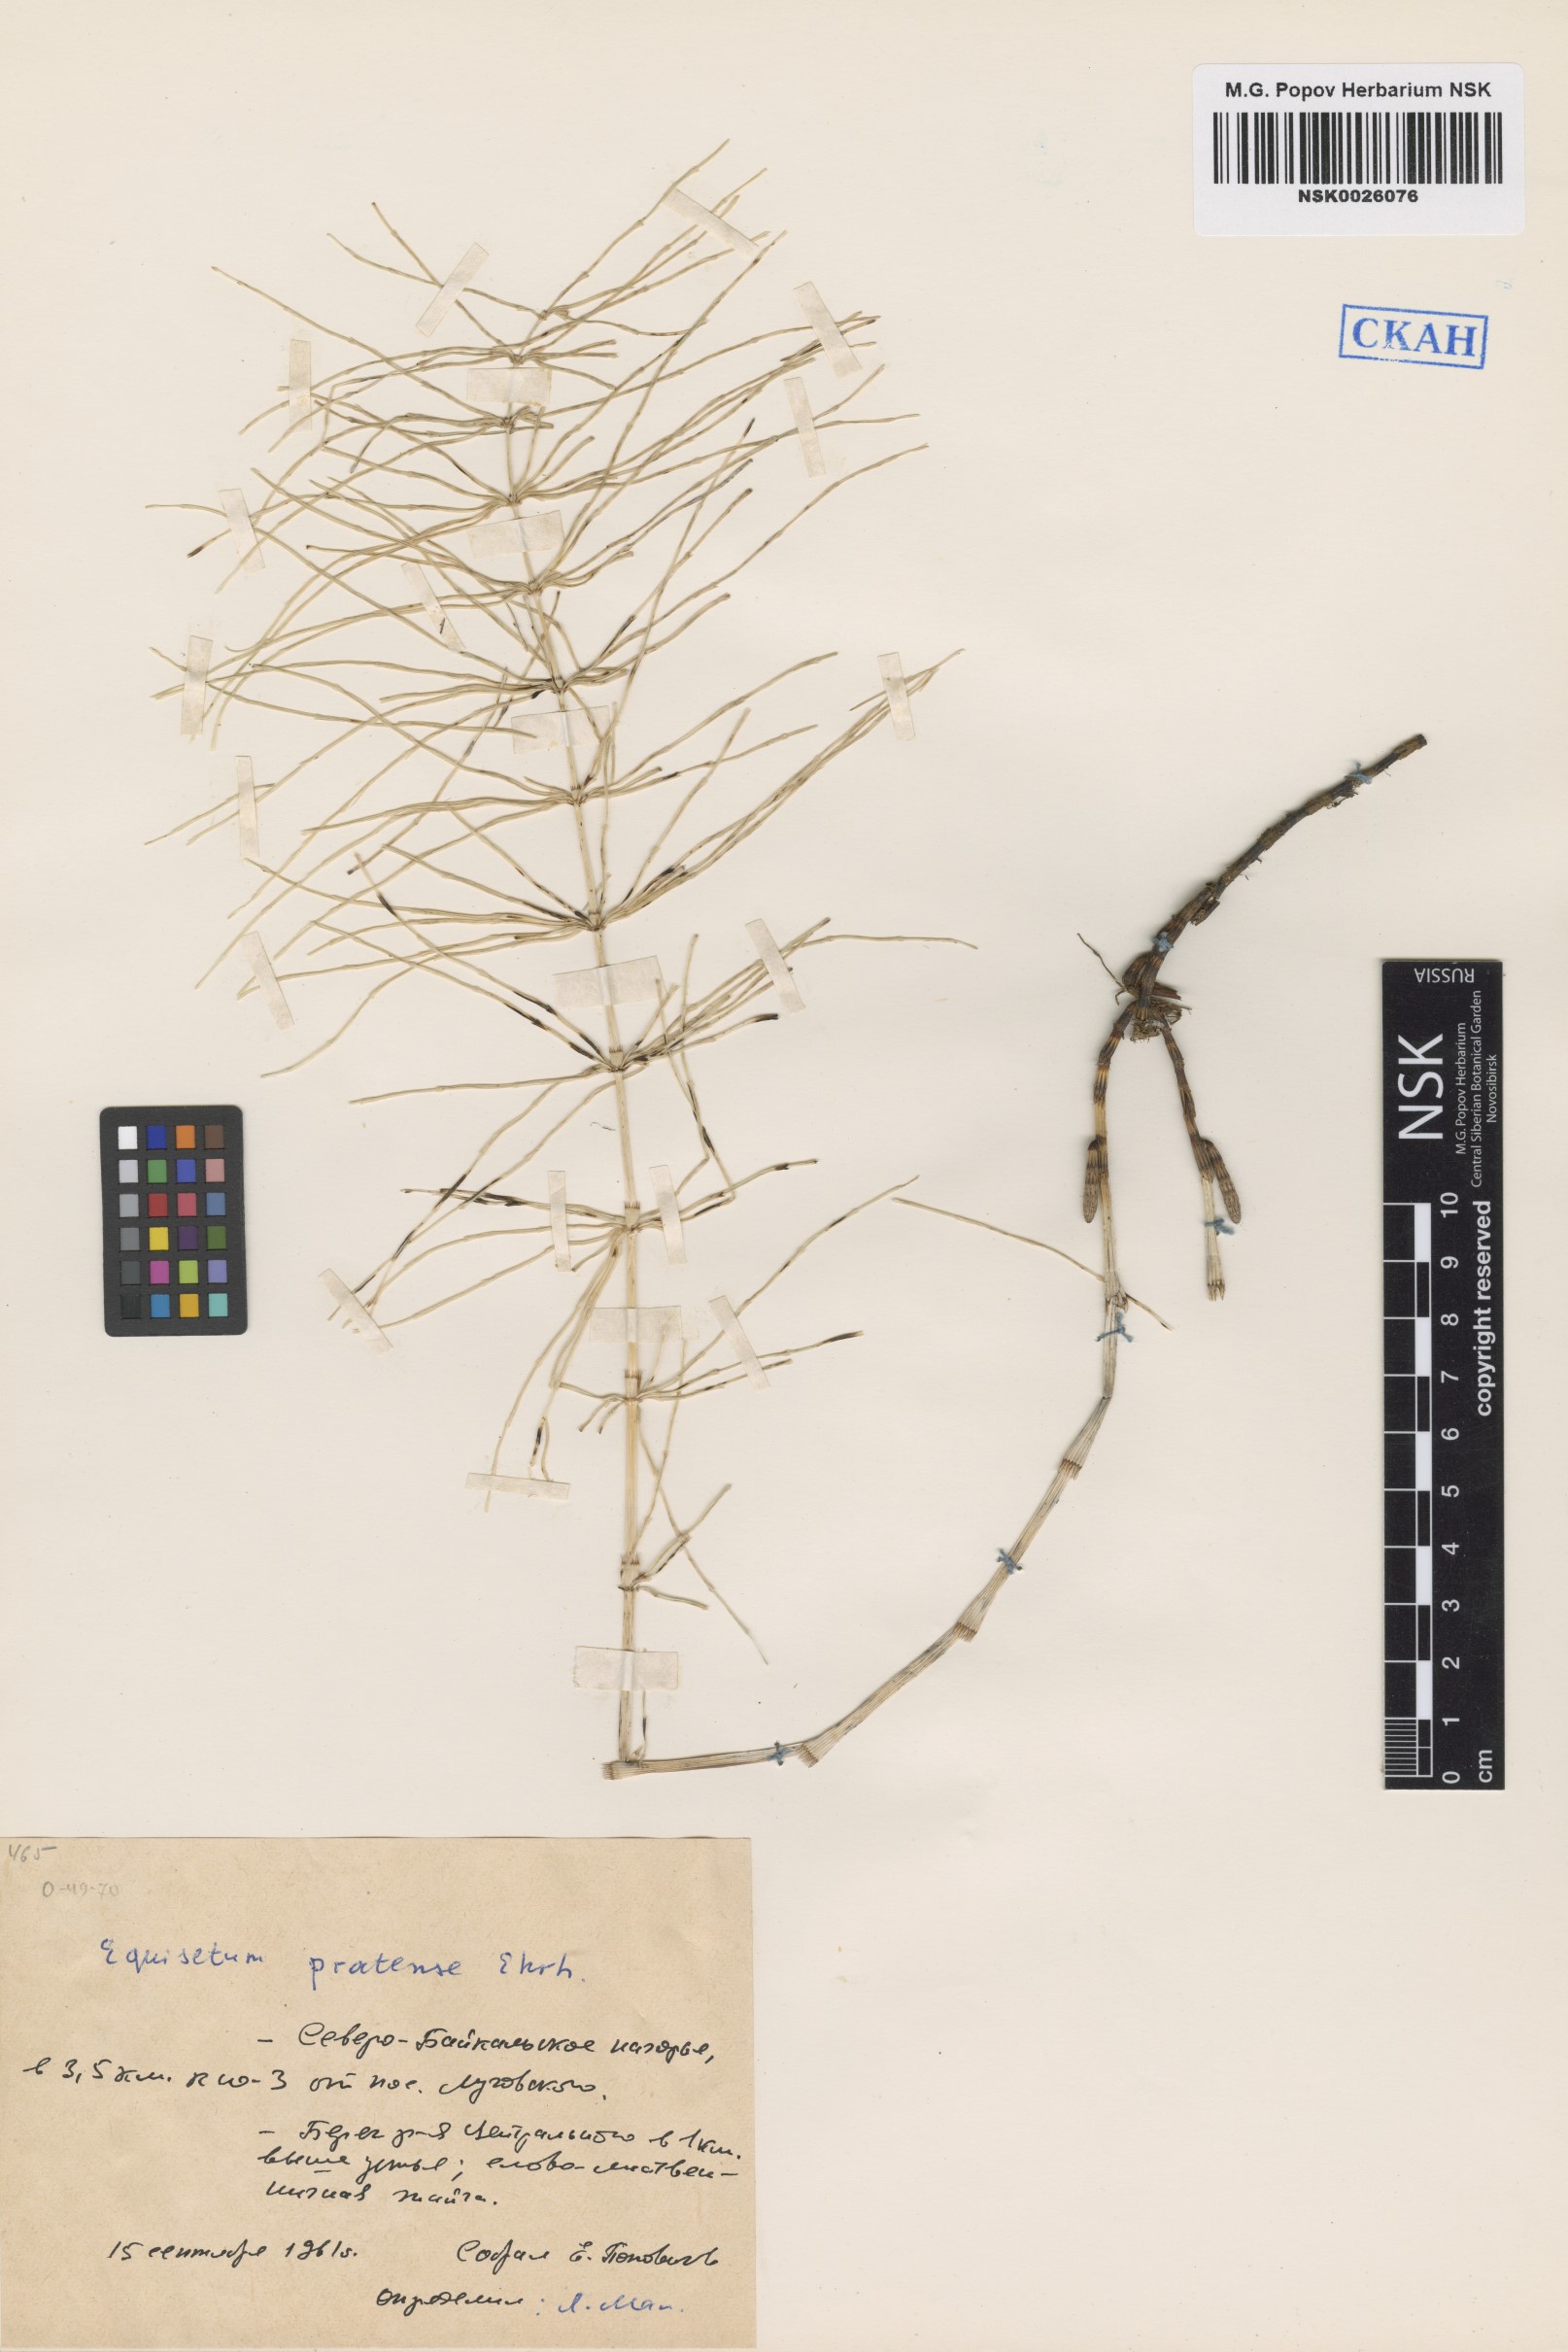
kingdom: Plantae
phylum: Tracheophyta
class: Polypodiopsida
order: Equisetales
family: Equisetaceae
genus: Equisetum
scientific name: Equisetum pratense
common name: Meadow horsetail
